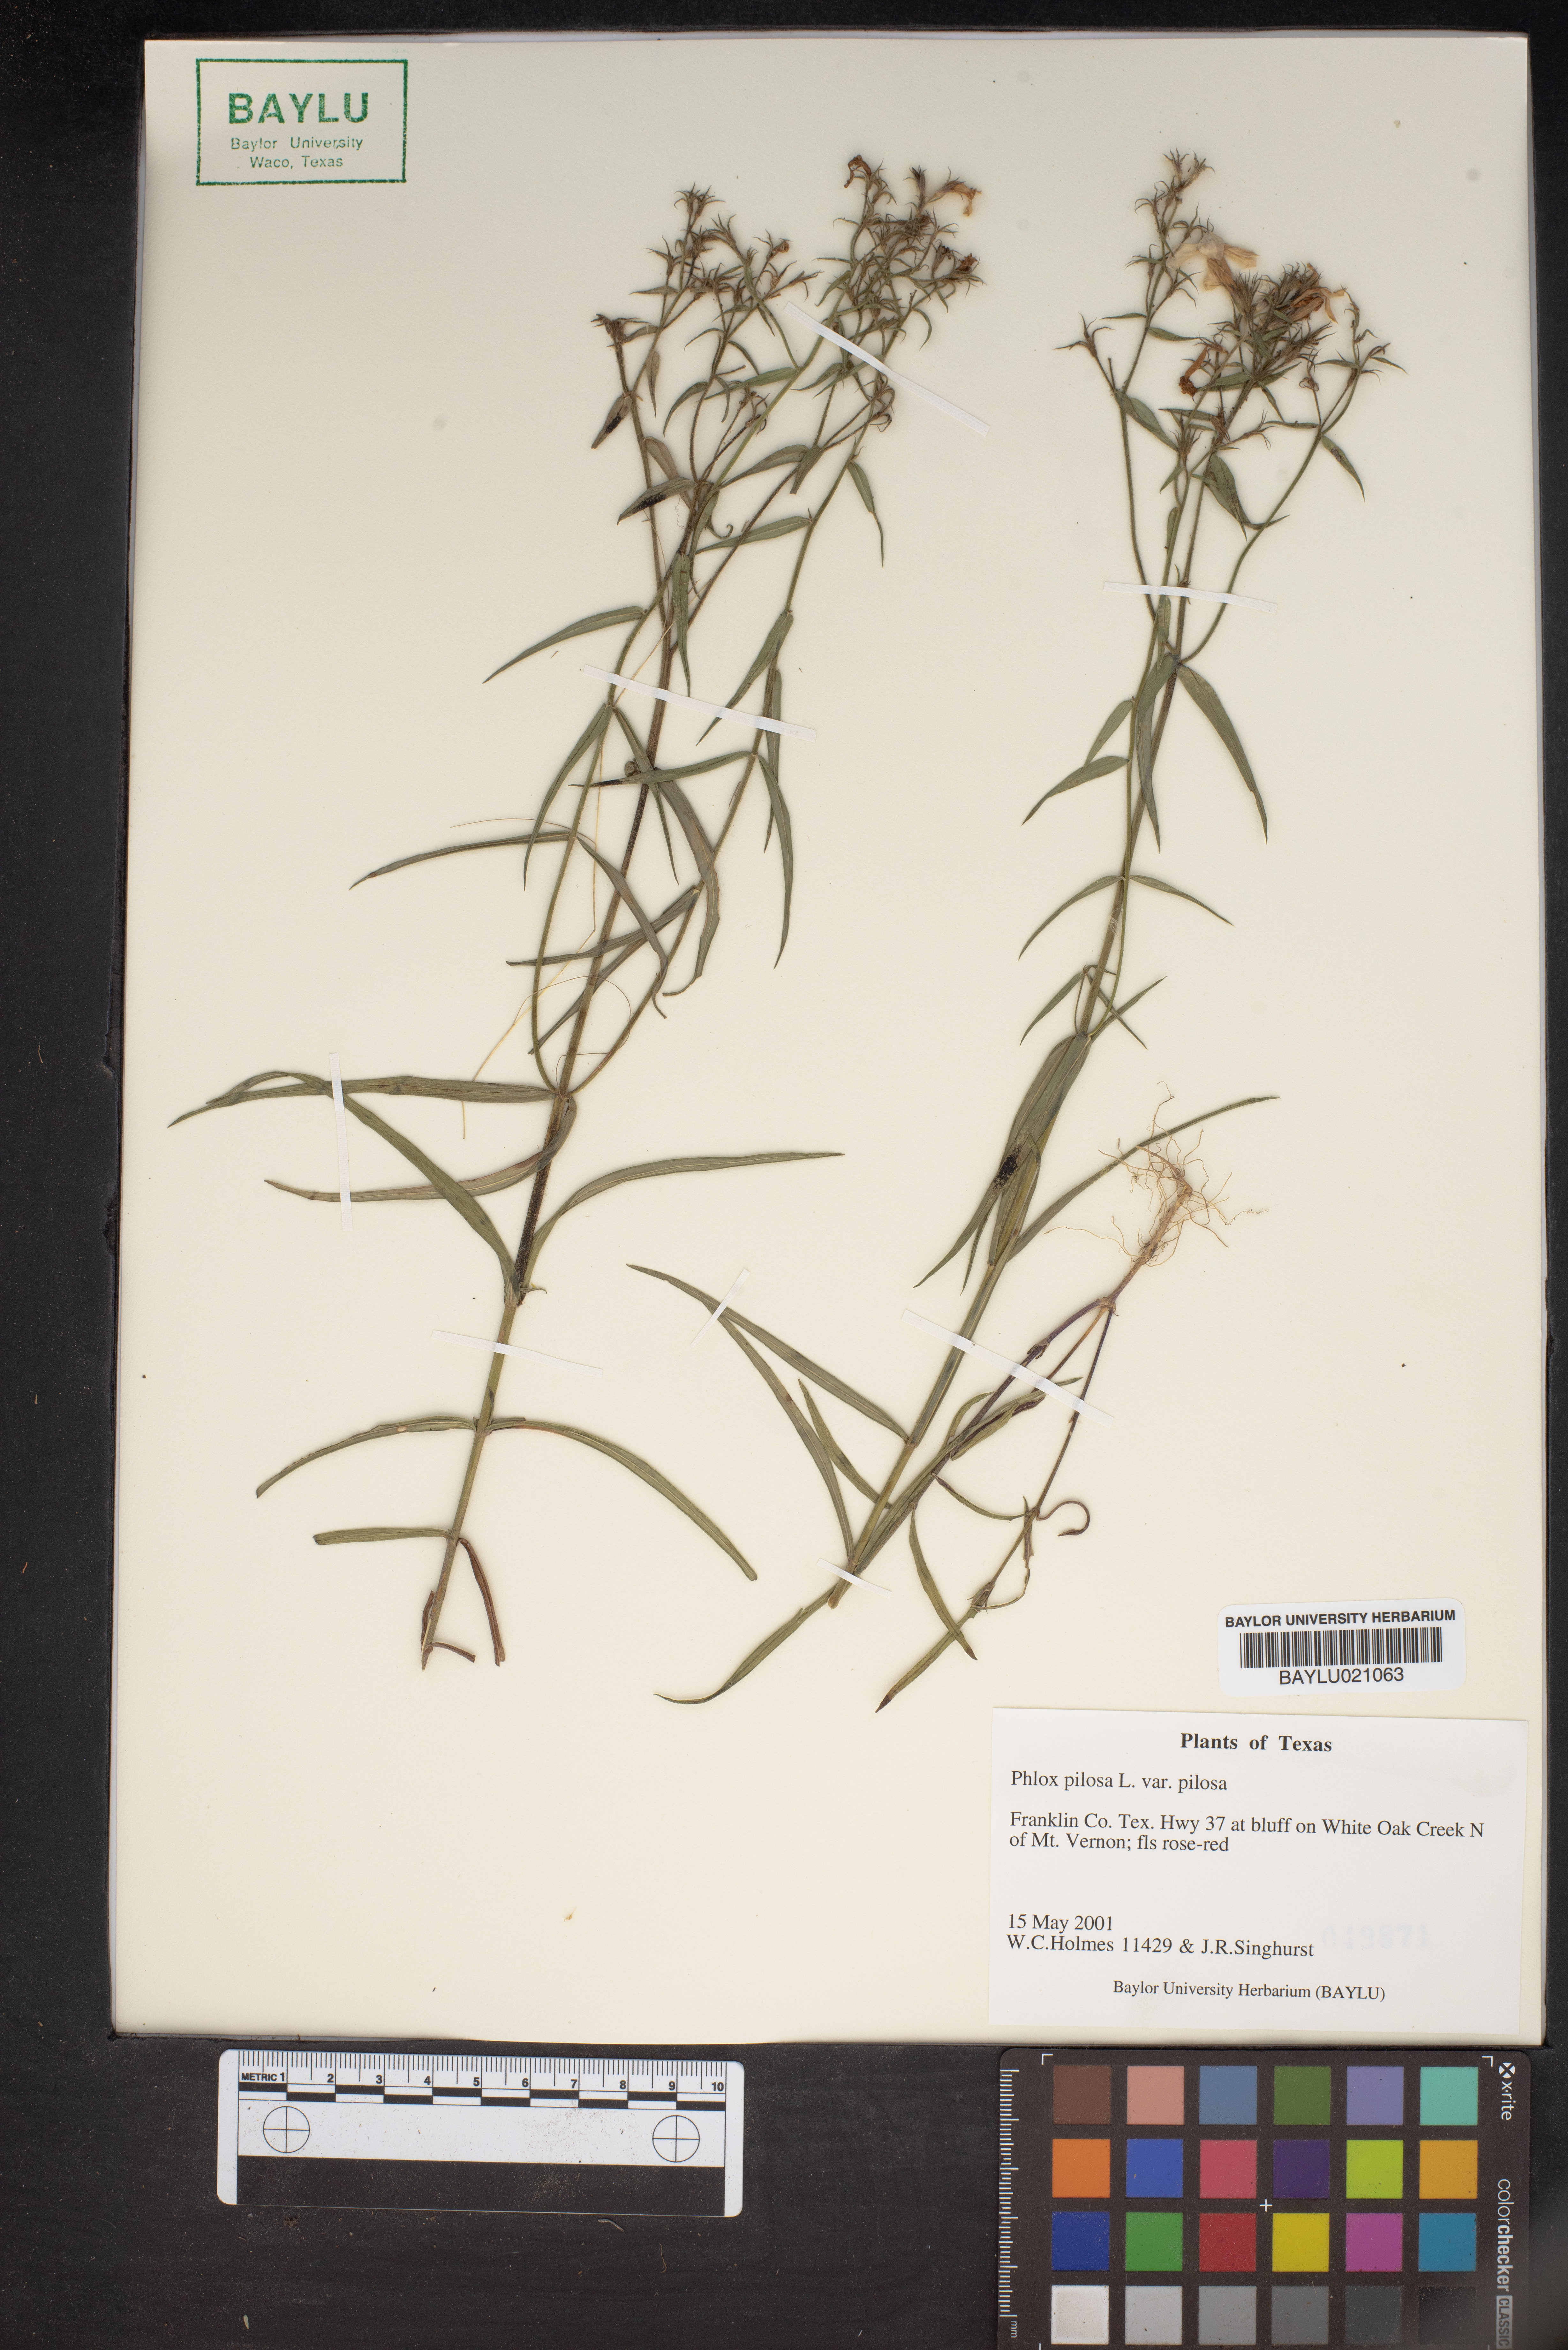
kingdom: Plantae
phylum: Tracheophyta
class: Magnoliopsida
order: Ericales
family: Polemoniaceae
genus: Phlox
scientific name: Phlox pilosa
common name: Prairie phlox
